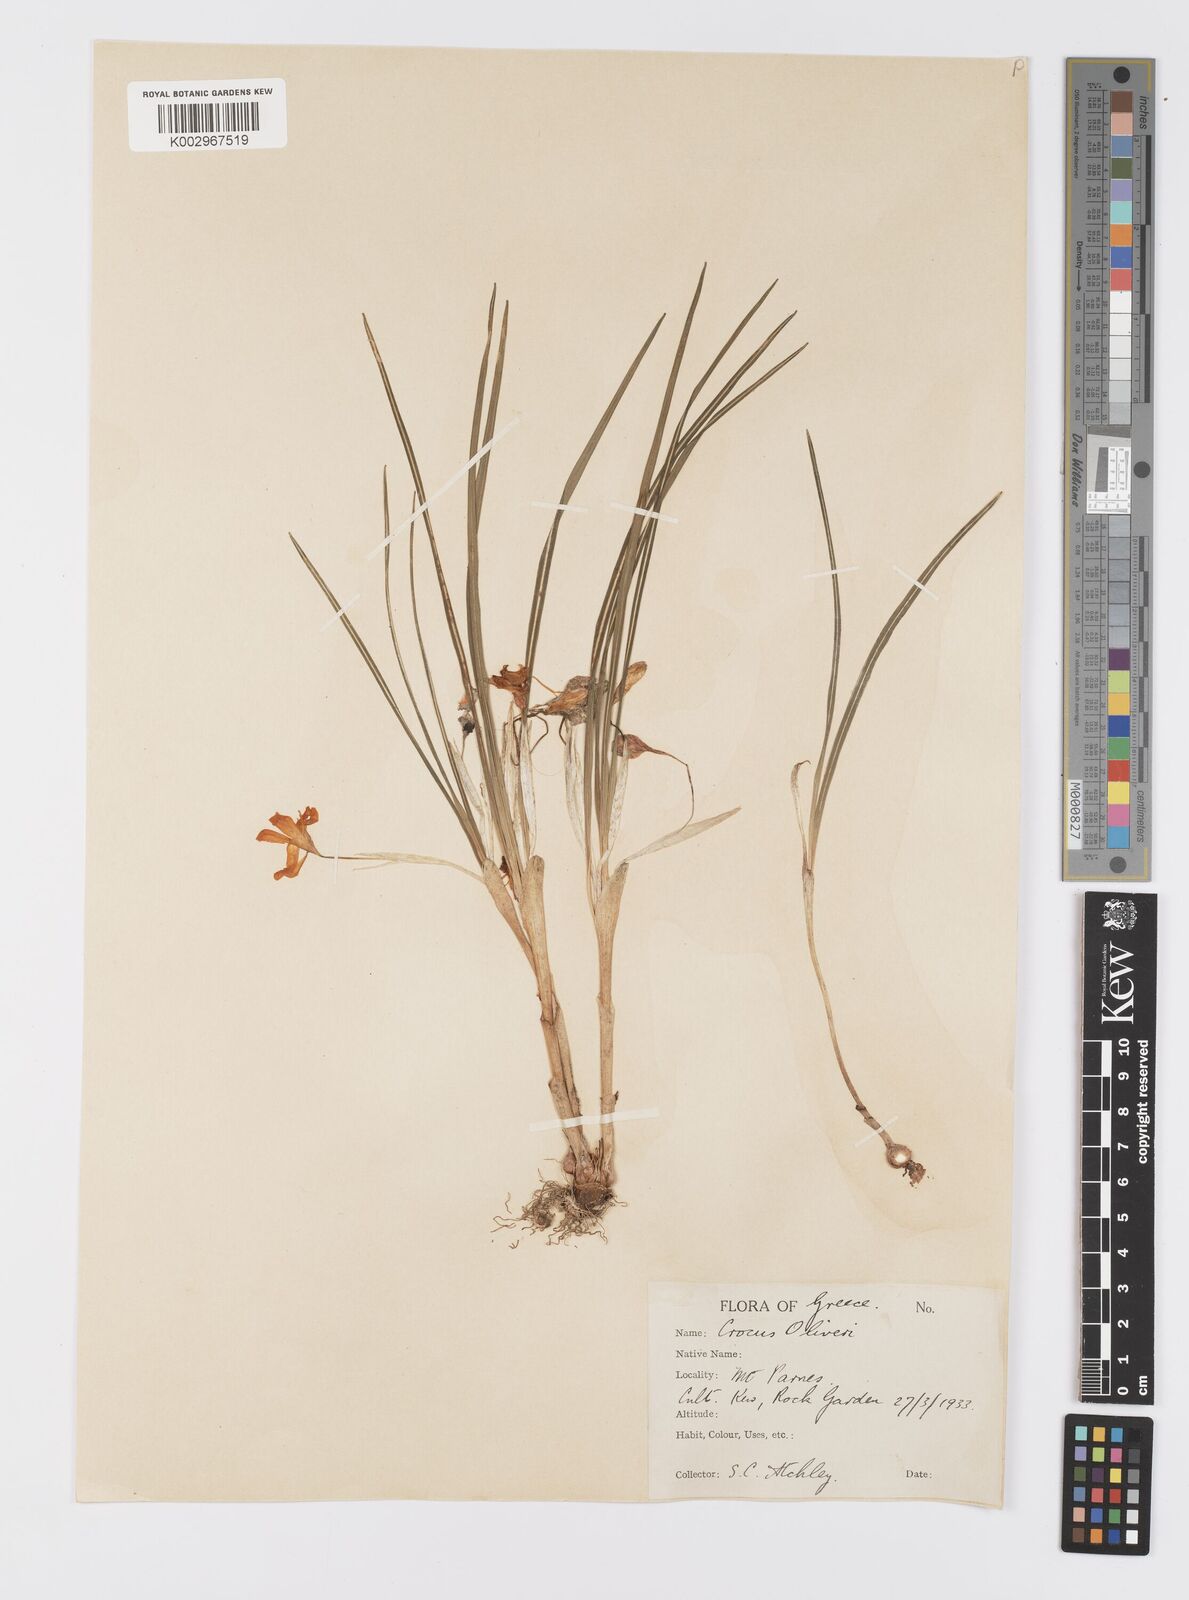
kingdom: Plantae
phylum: Tracheophyta
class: Liliopsida
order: Asparagales
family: Iridaceae
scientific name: Iridaceae
